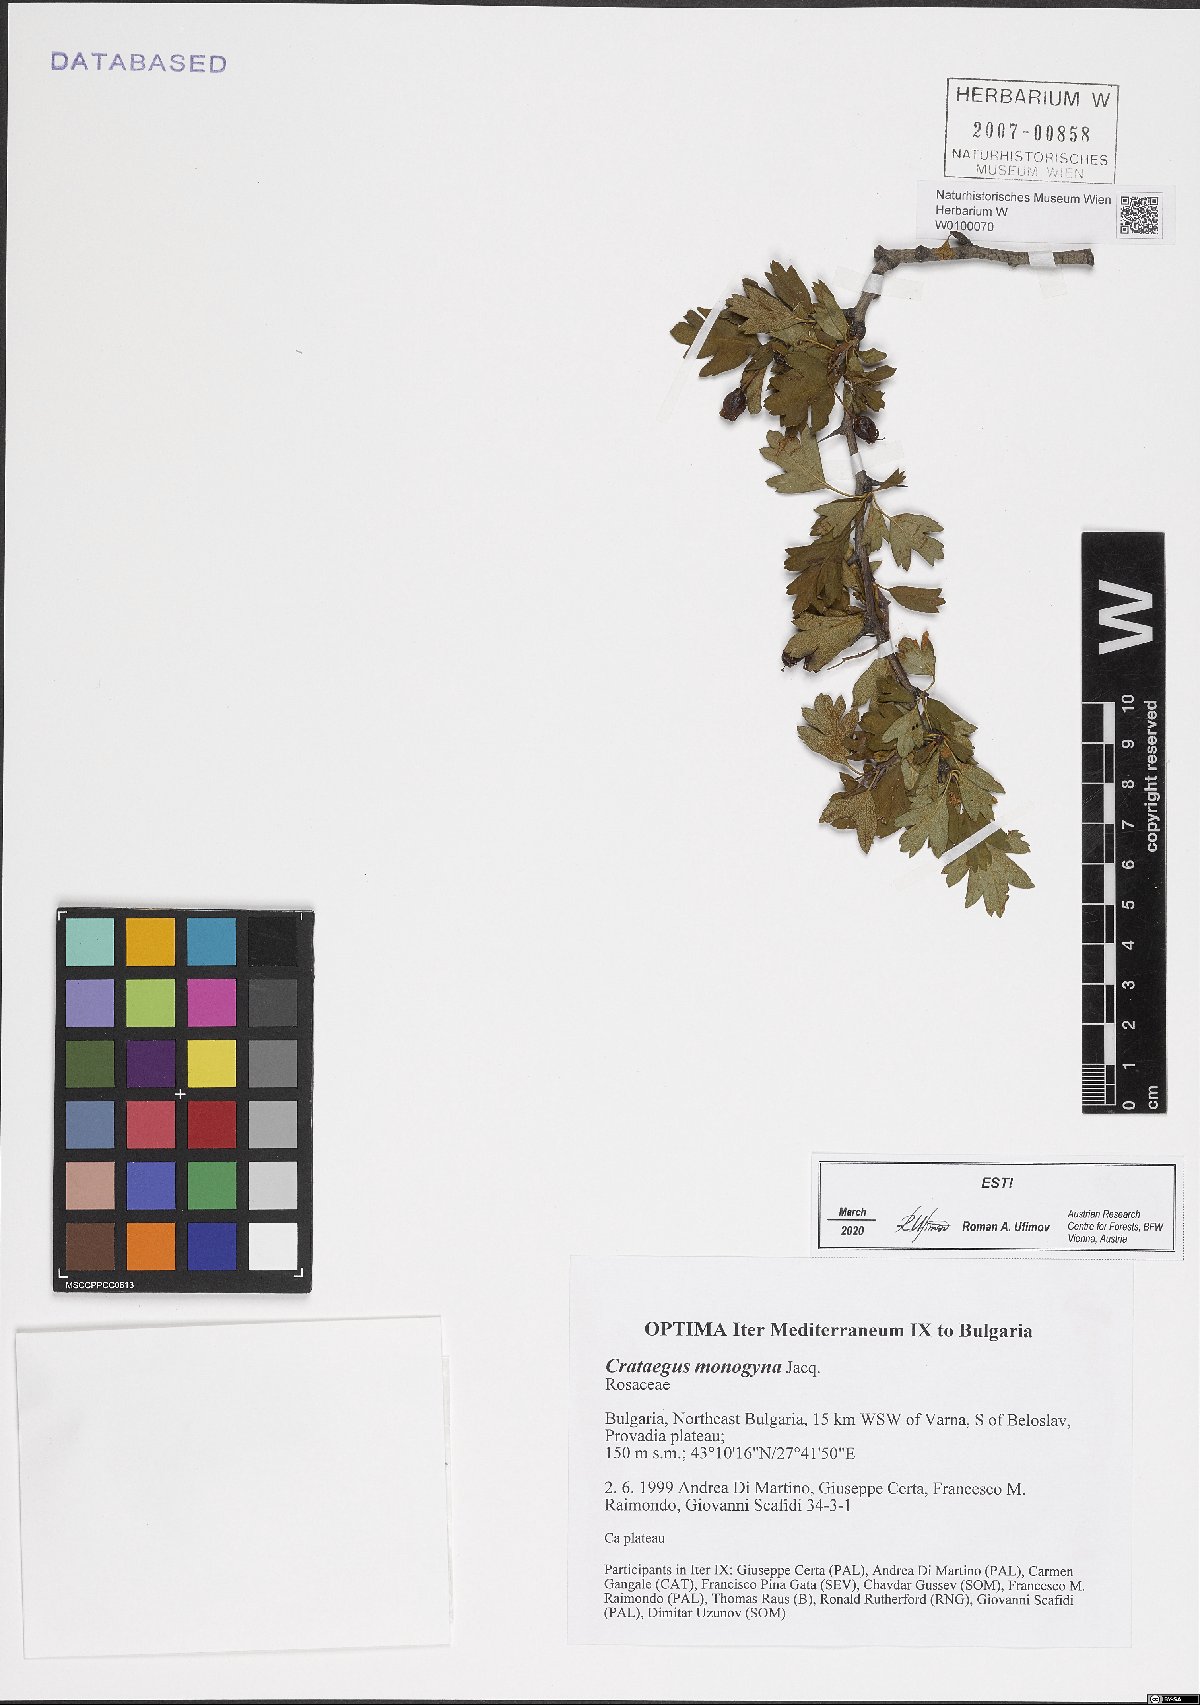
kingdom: Plantae
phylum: Tracheophyta
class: Magnoliopsida
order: Rosales
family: Rosaceae
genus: Crataegus
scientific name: Crataegus monogyna
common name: Hawthorn
